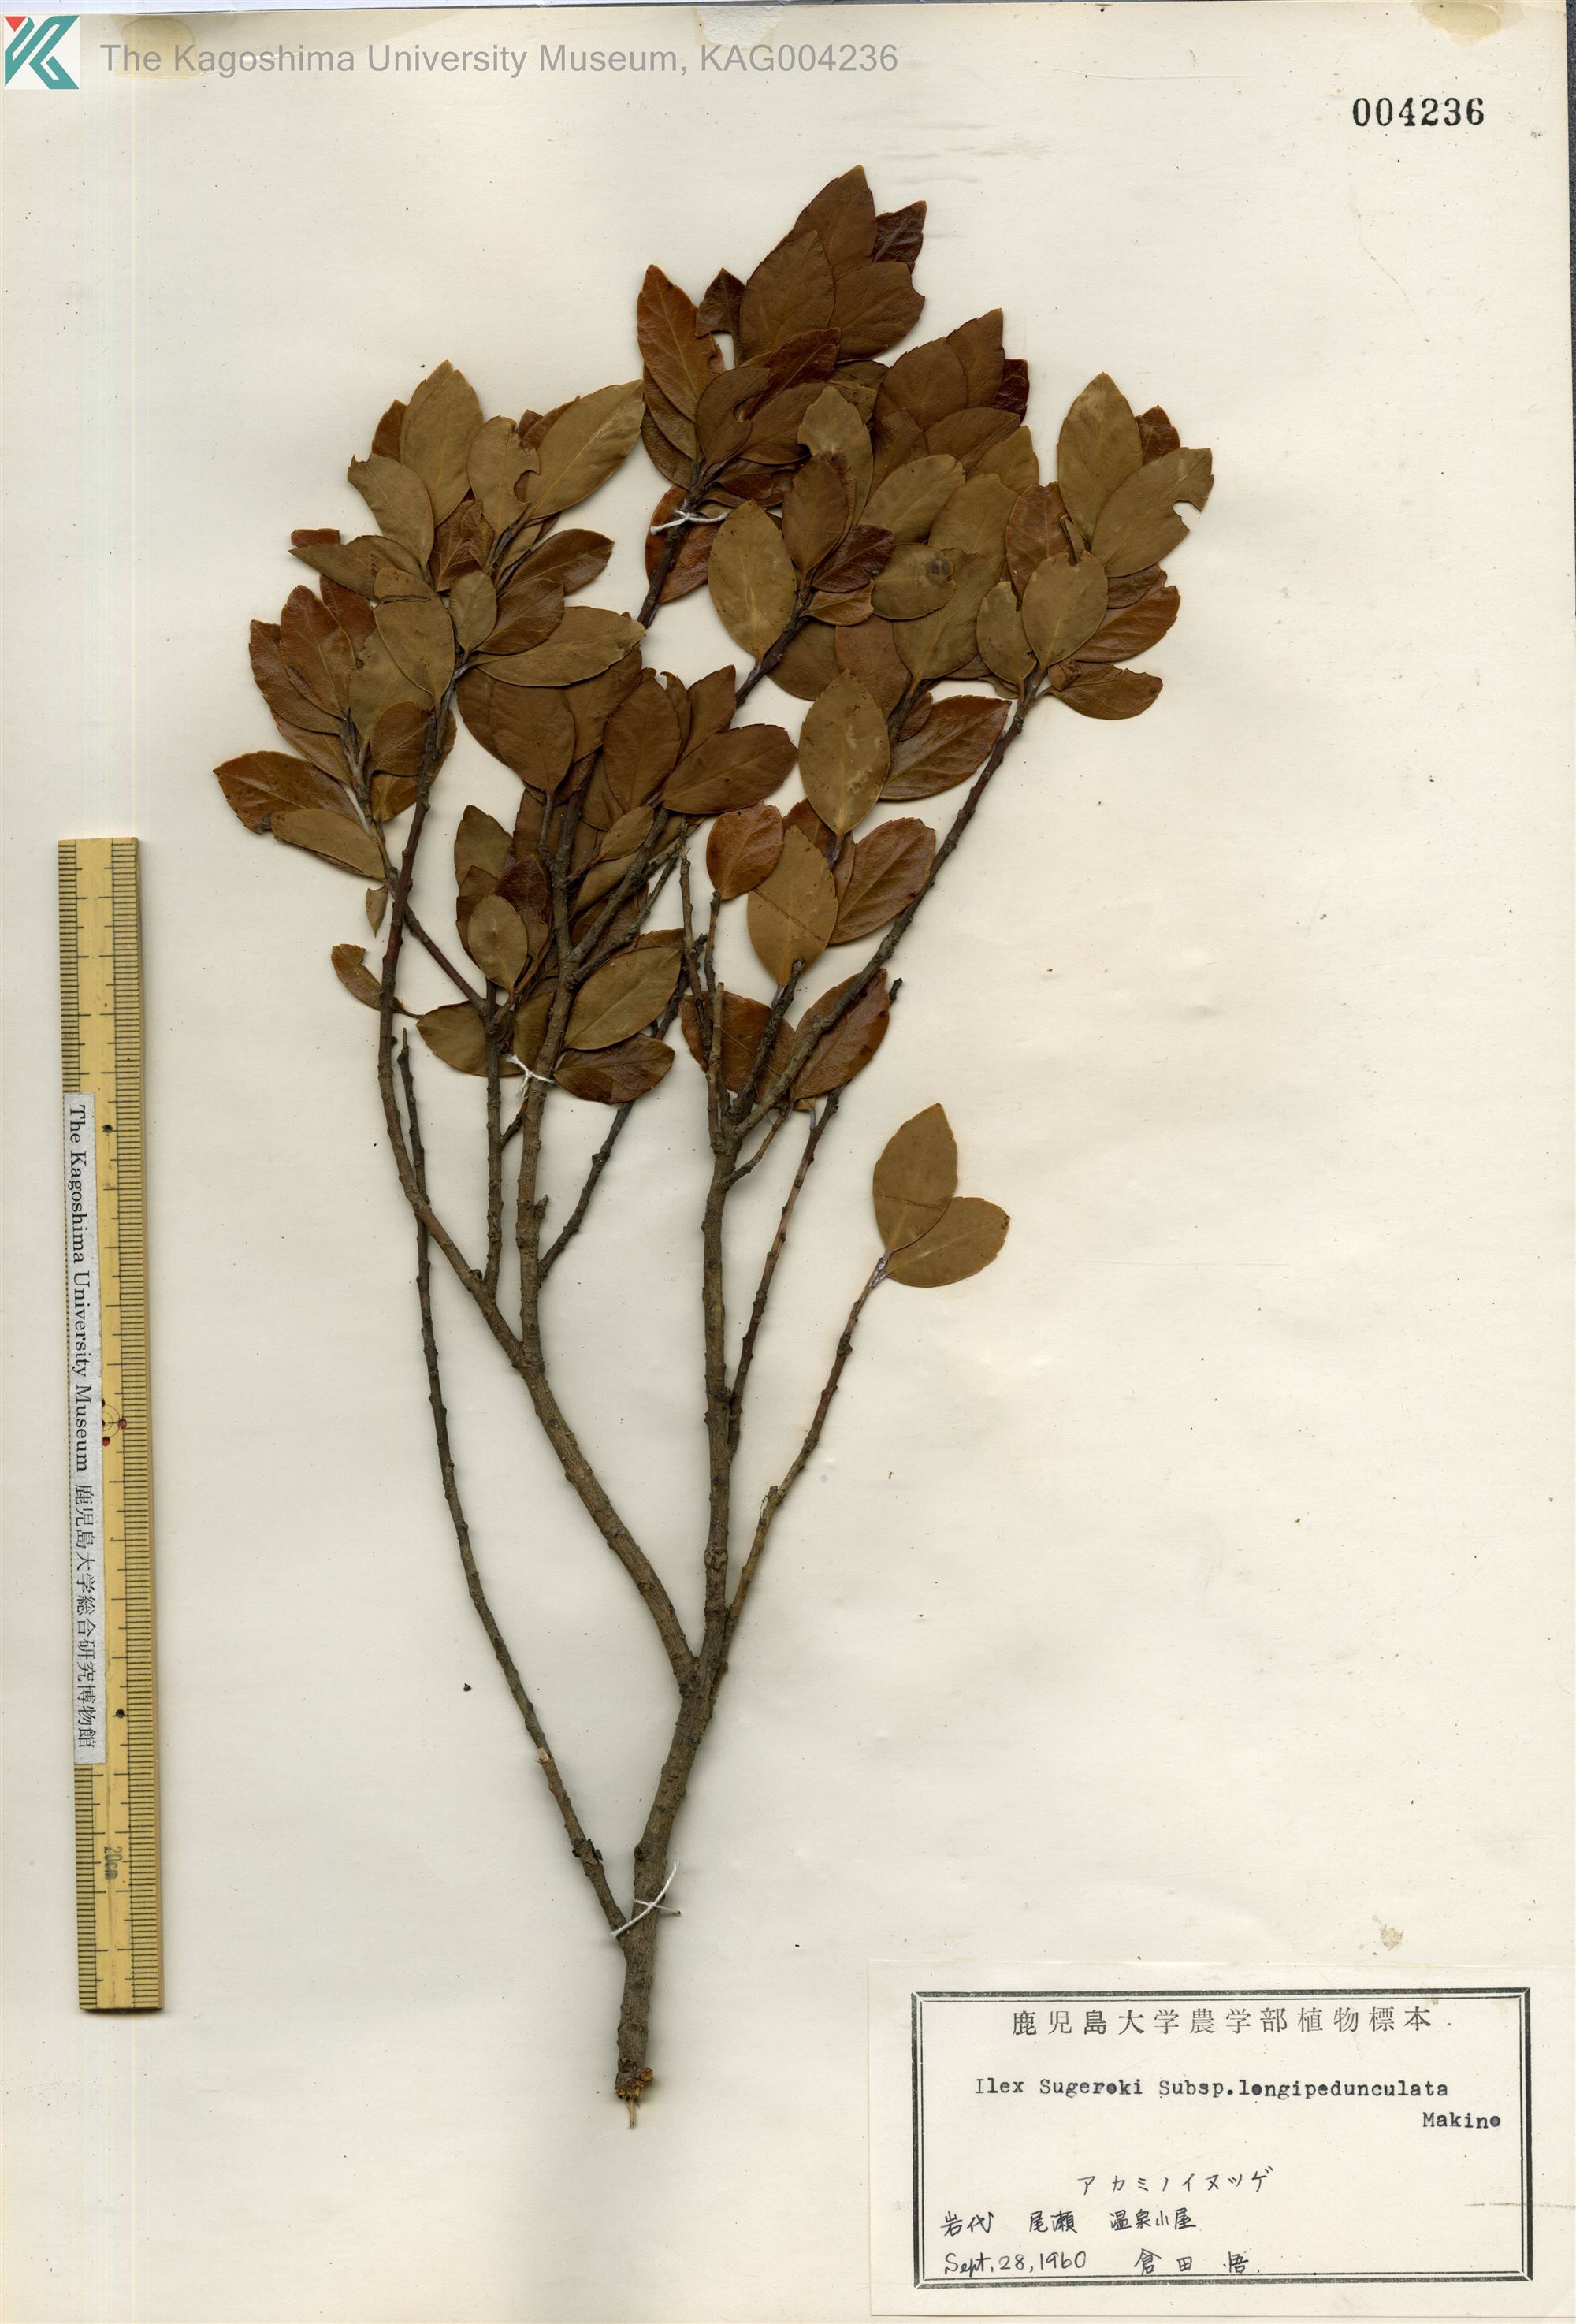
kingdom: Plantae
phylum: Tracheophyta
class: Magnoliopsida
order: Aquifoliales
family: Aquifoliaceae
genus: Ilex
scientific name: Ilex sugerokii
